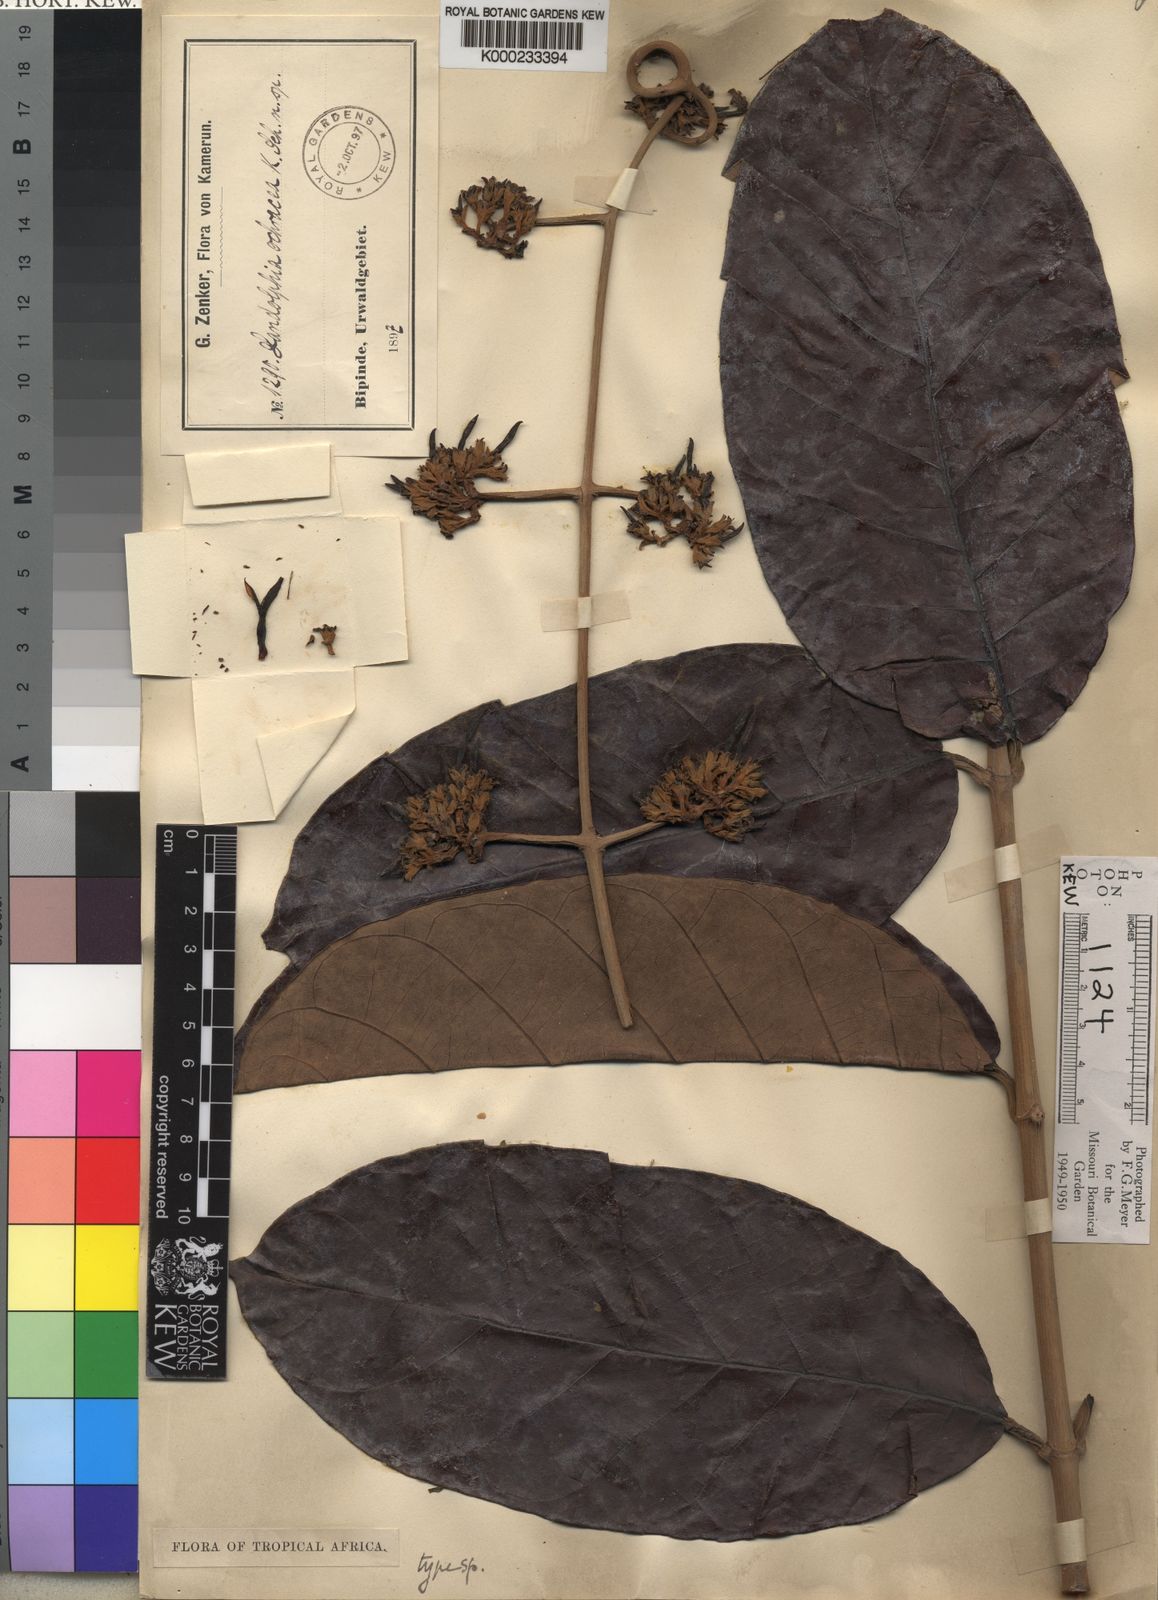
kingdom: Plantae
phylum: Tracheophyta
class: Magnoliopsida
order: Gentianales
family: Apocynaceae
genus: Dictyophleba
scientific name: Dictyophleba ochracea
